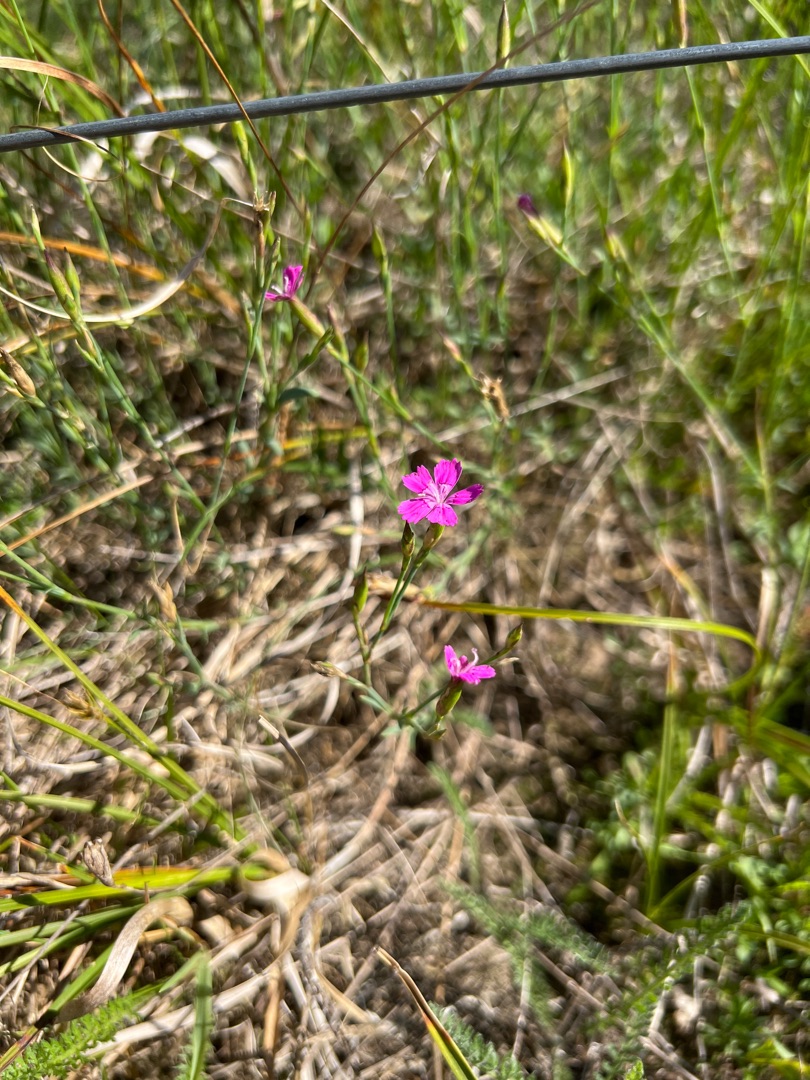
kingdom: Plantae
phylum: Tracheophyta
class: Magnoliopsida
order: Caryophyllales
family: Caryophyllaceae
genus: Dianthus
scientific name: Dianthus deltoides
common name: Bakke-nellike
